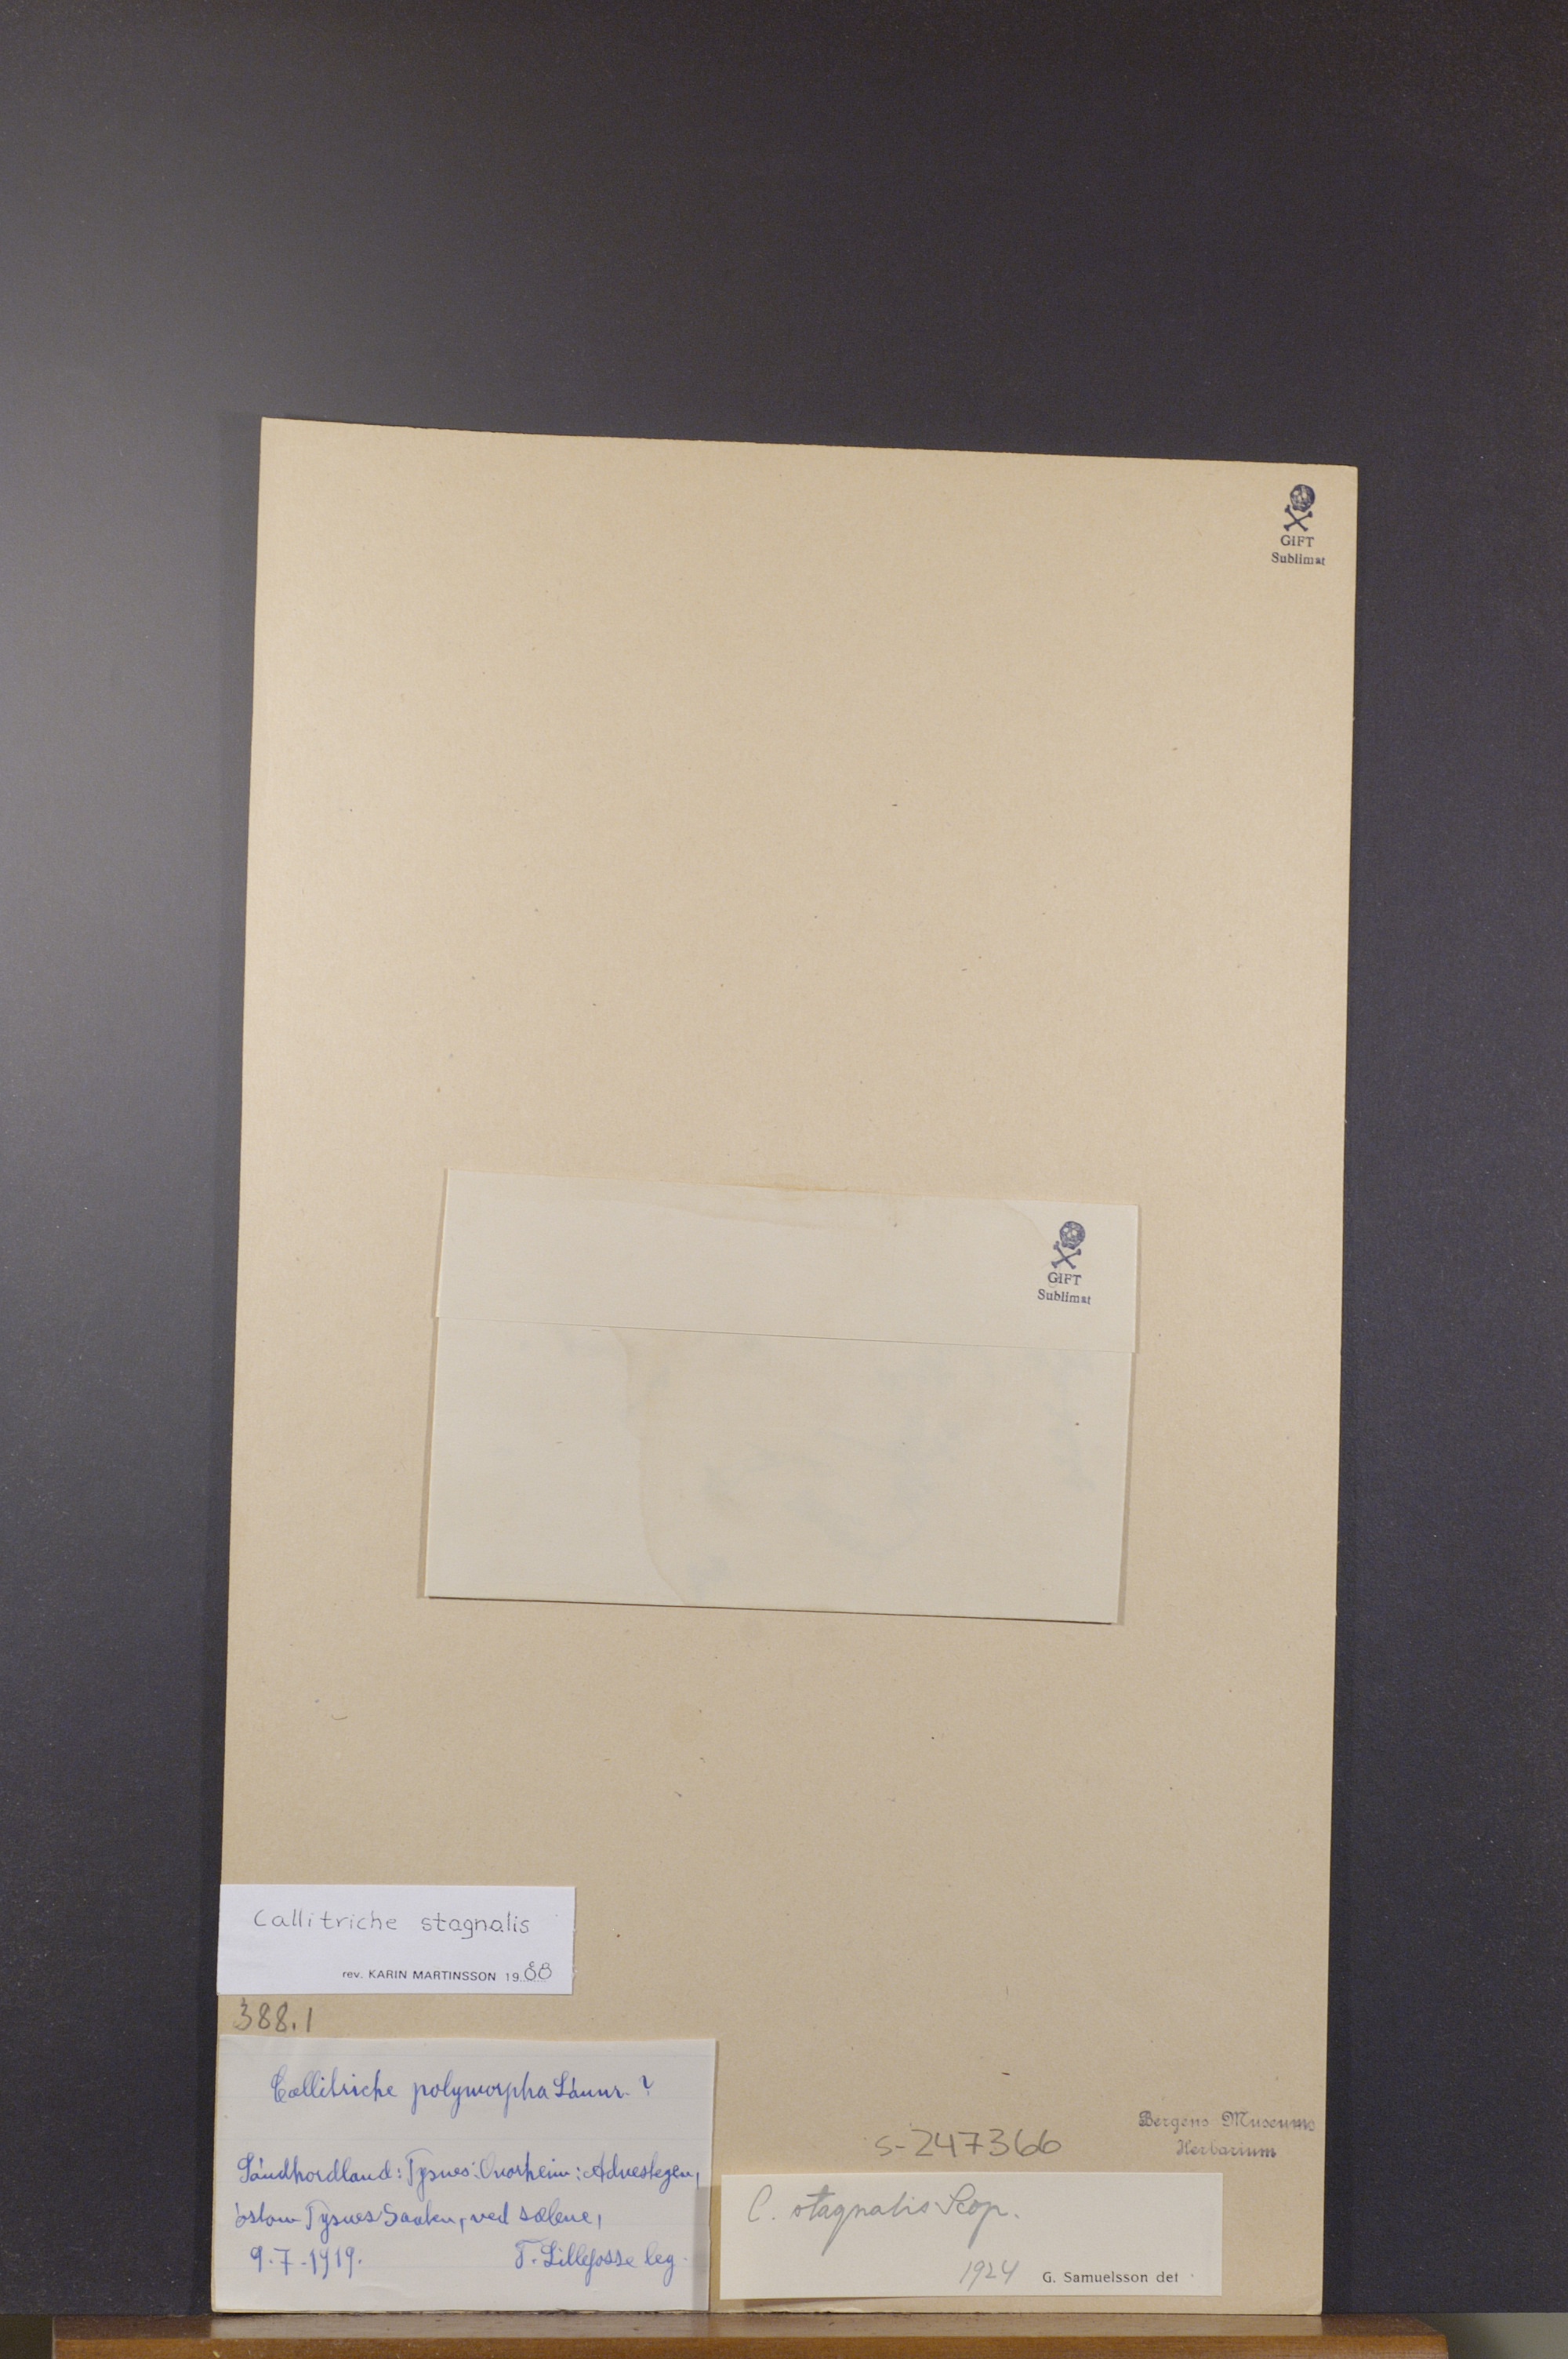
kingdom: Plantae
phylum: Tracheophyta
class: Magnoliopsida
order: Lamiales
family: Plantaginaceae
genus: Callitriche
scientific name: Callitriche stagnalis
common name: Common water-starwort
